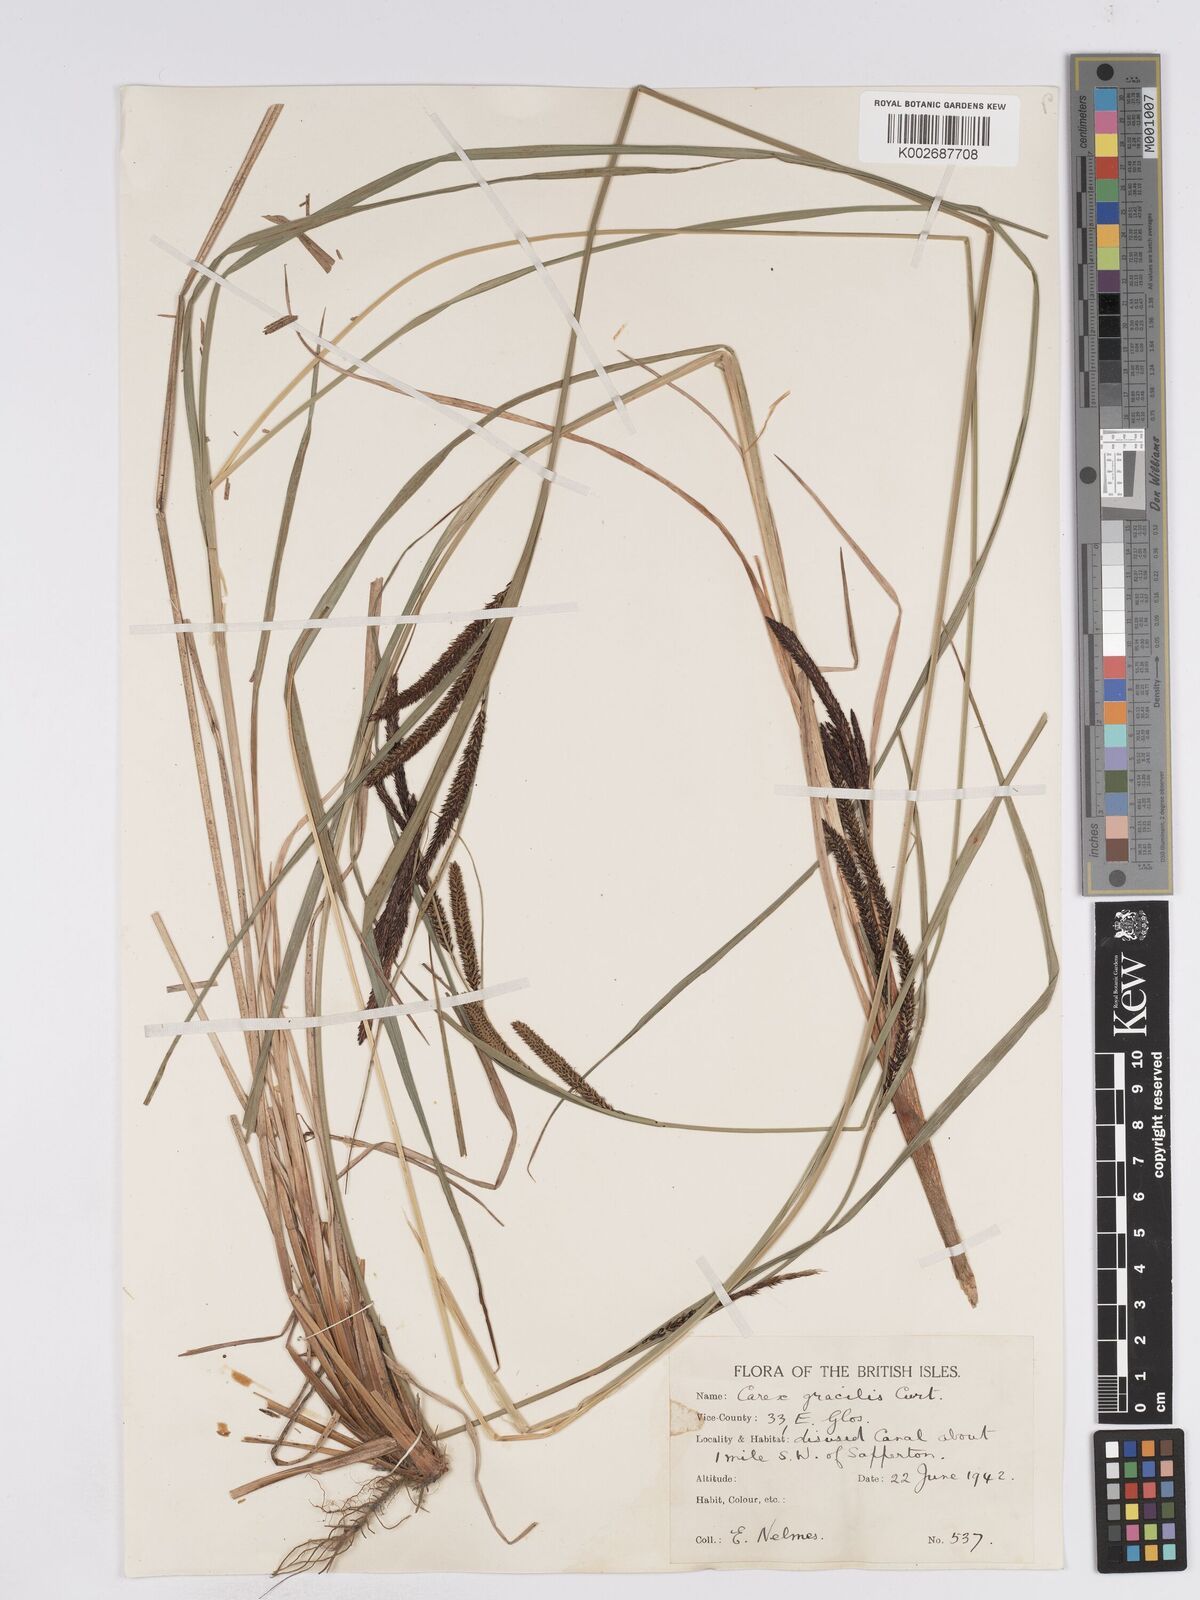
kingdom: Plantae
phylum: Tracheophyta
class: Liliopsida
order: Poales
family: Cyperaceae
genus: Carex
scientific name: Carex acuta
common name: Slender tufted-sedge
